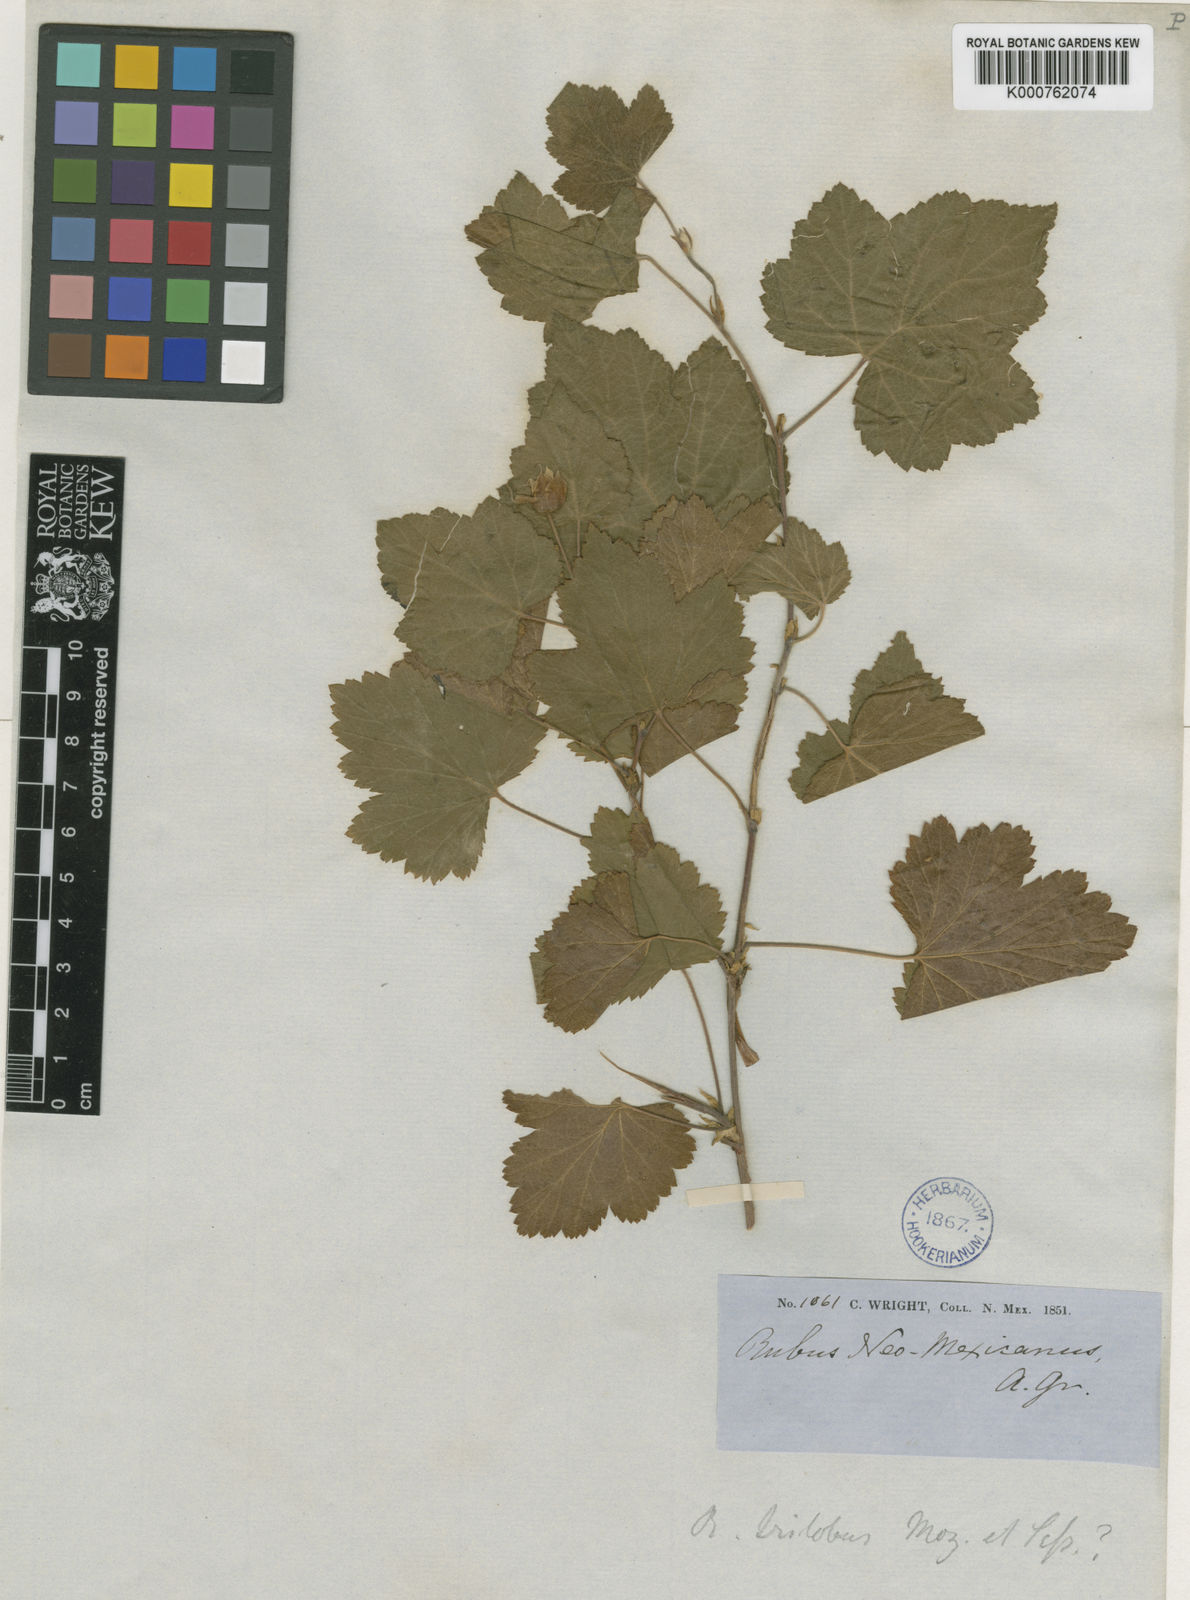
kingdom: Plantae
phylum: Tracheophyta
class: Magnoliopsida
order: Rosales
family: Rosaceae
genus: Rubus
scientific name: Rubus deliciosus
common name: Rocky mountain raspberry
